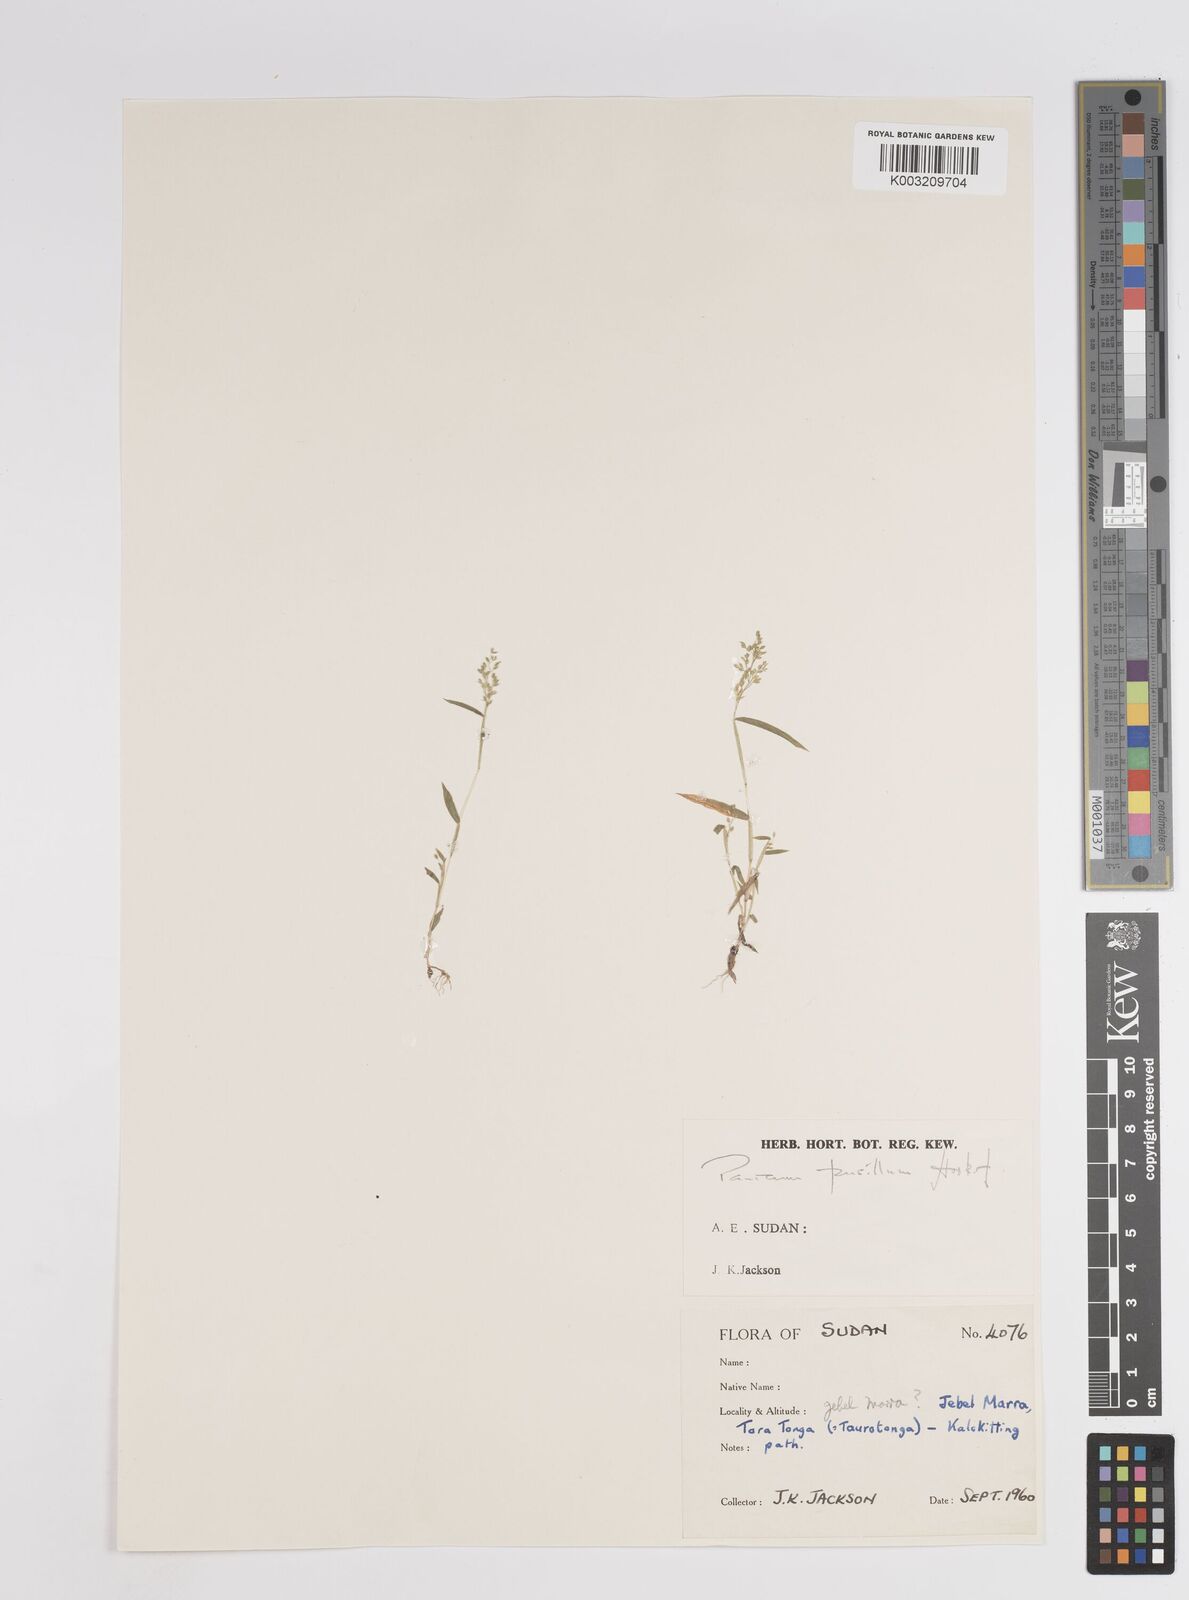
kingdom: Plantae
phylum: Tracheophyta
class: Liliopsida
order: Poales
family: Poaceae
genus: Panicum
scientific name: Panicum pusillum
